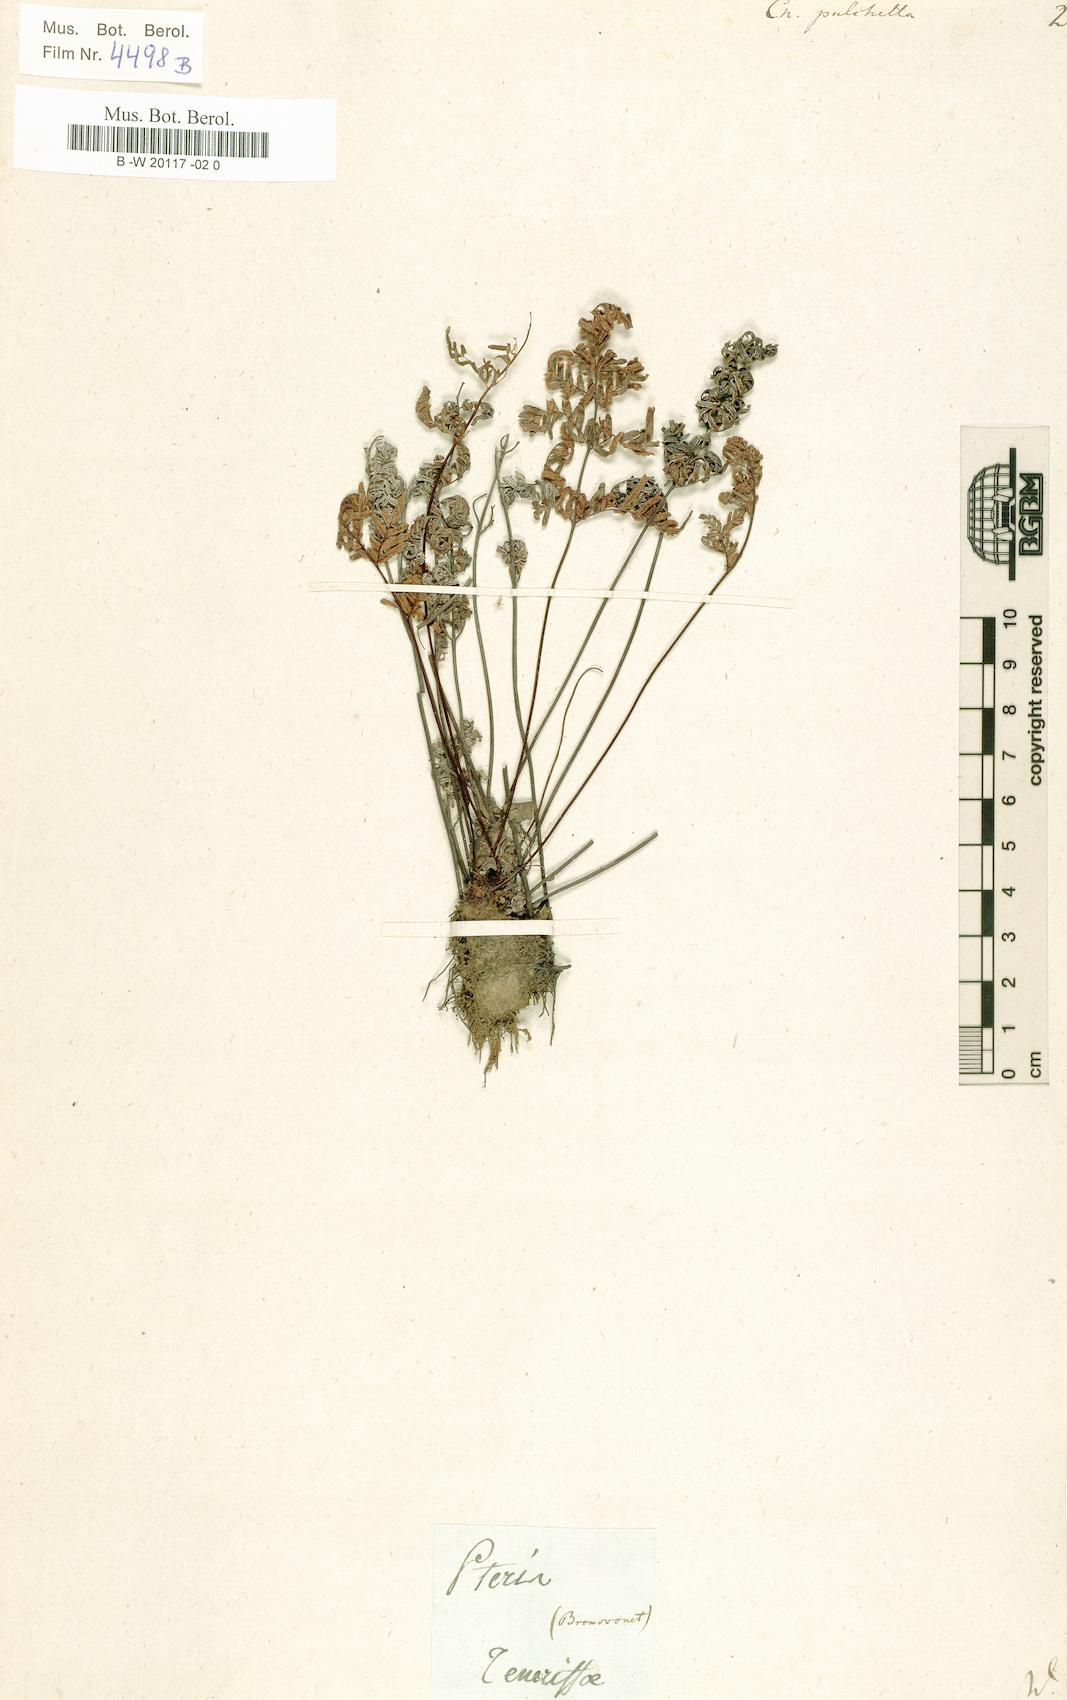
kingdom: Plantae
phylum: Tracheophyta
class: Polypodiopsida
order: Polypodiales
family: Pteridaceae
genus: Cheilanthes
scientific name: Cheilanthes pulchella
